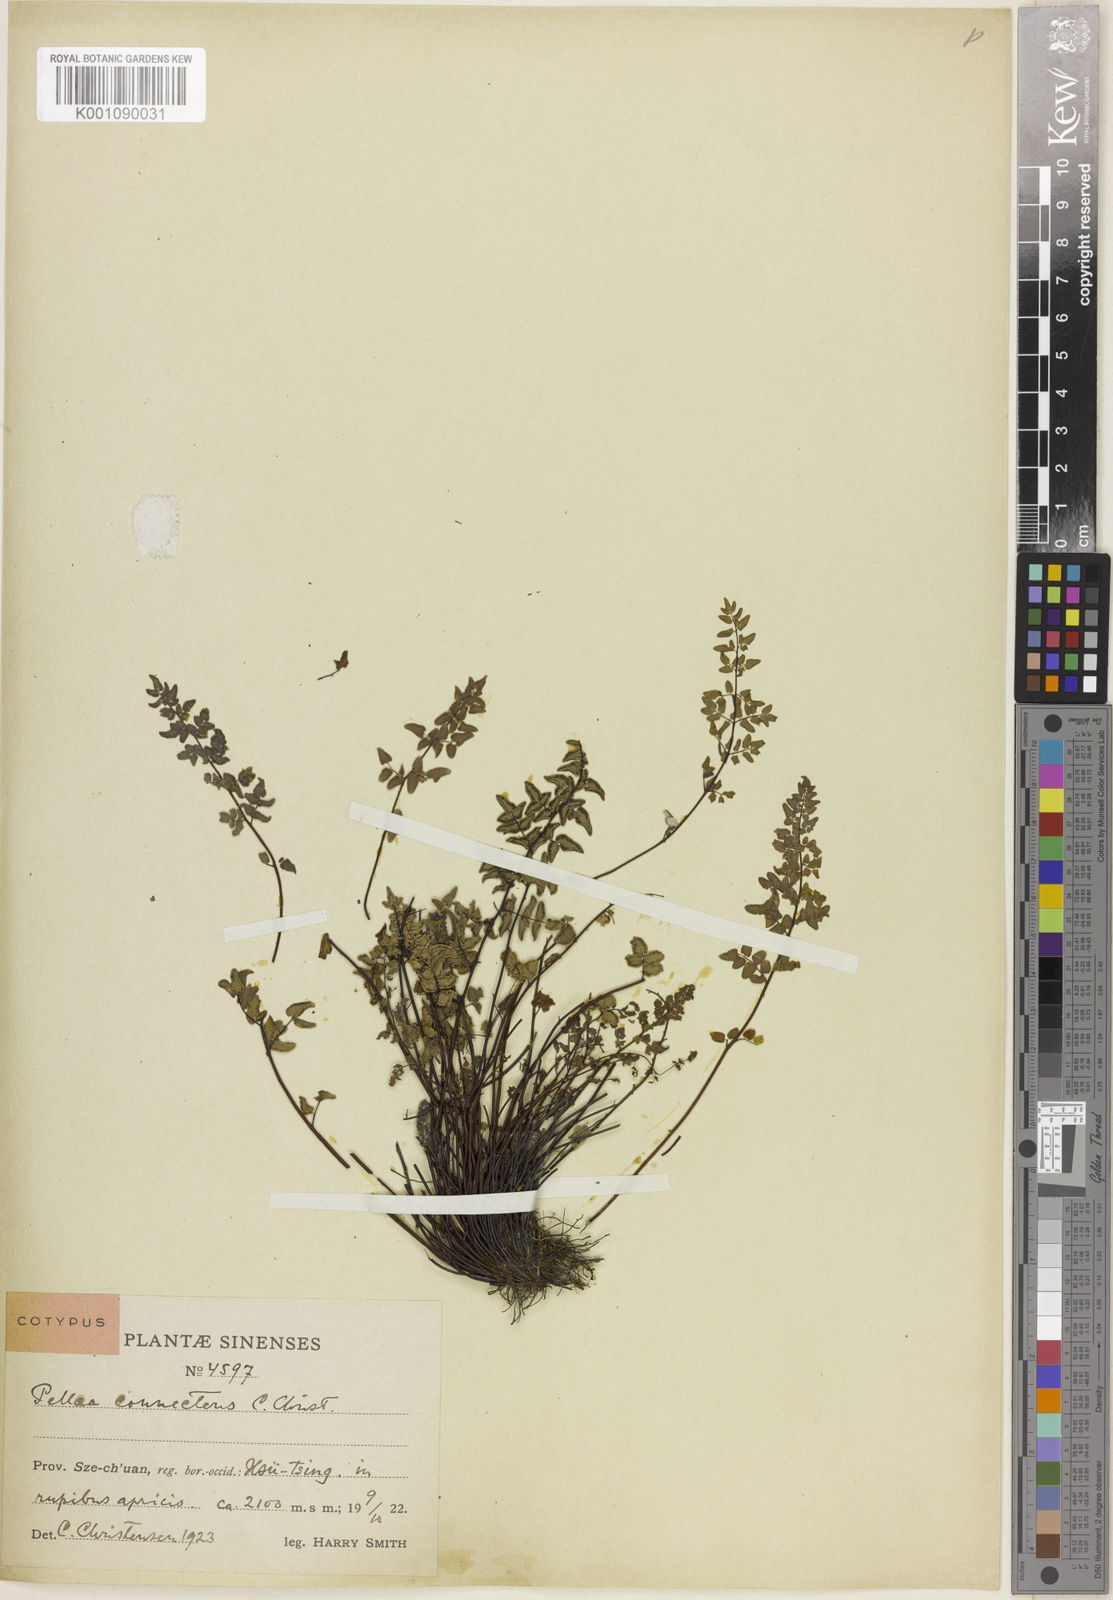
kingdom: Plantae
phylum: Tracheophyta
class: Polypodiopsida
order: Polypodiales
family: Pteridaceae
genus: Argyrochosma
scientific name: Argyrochosma connectens
